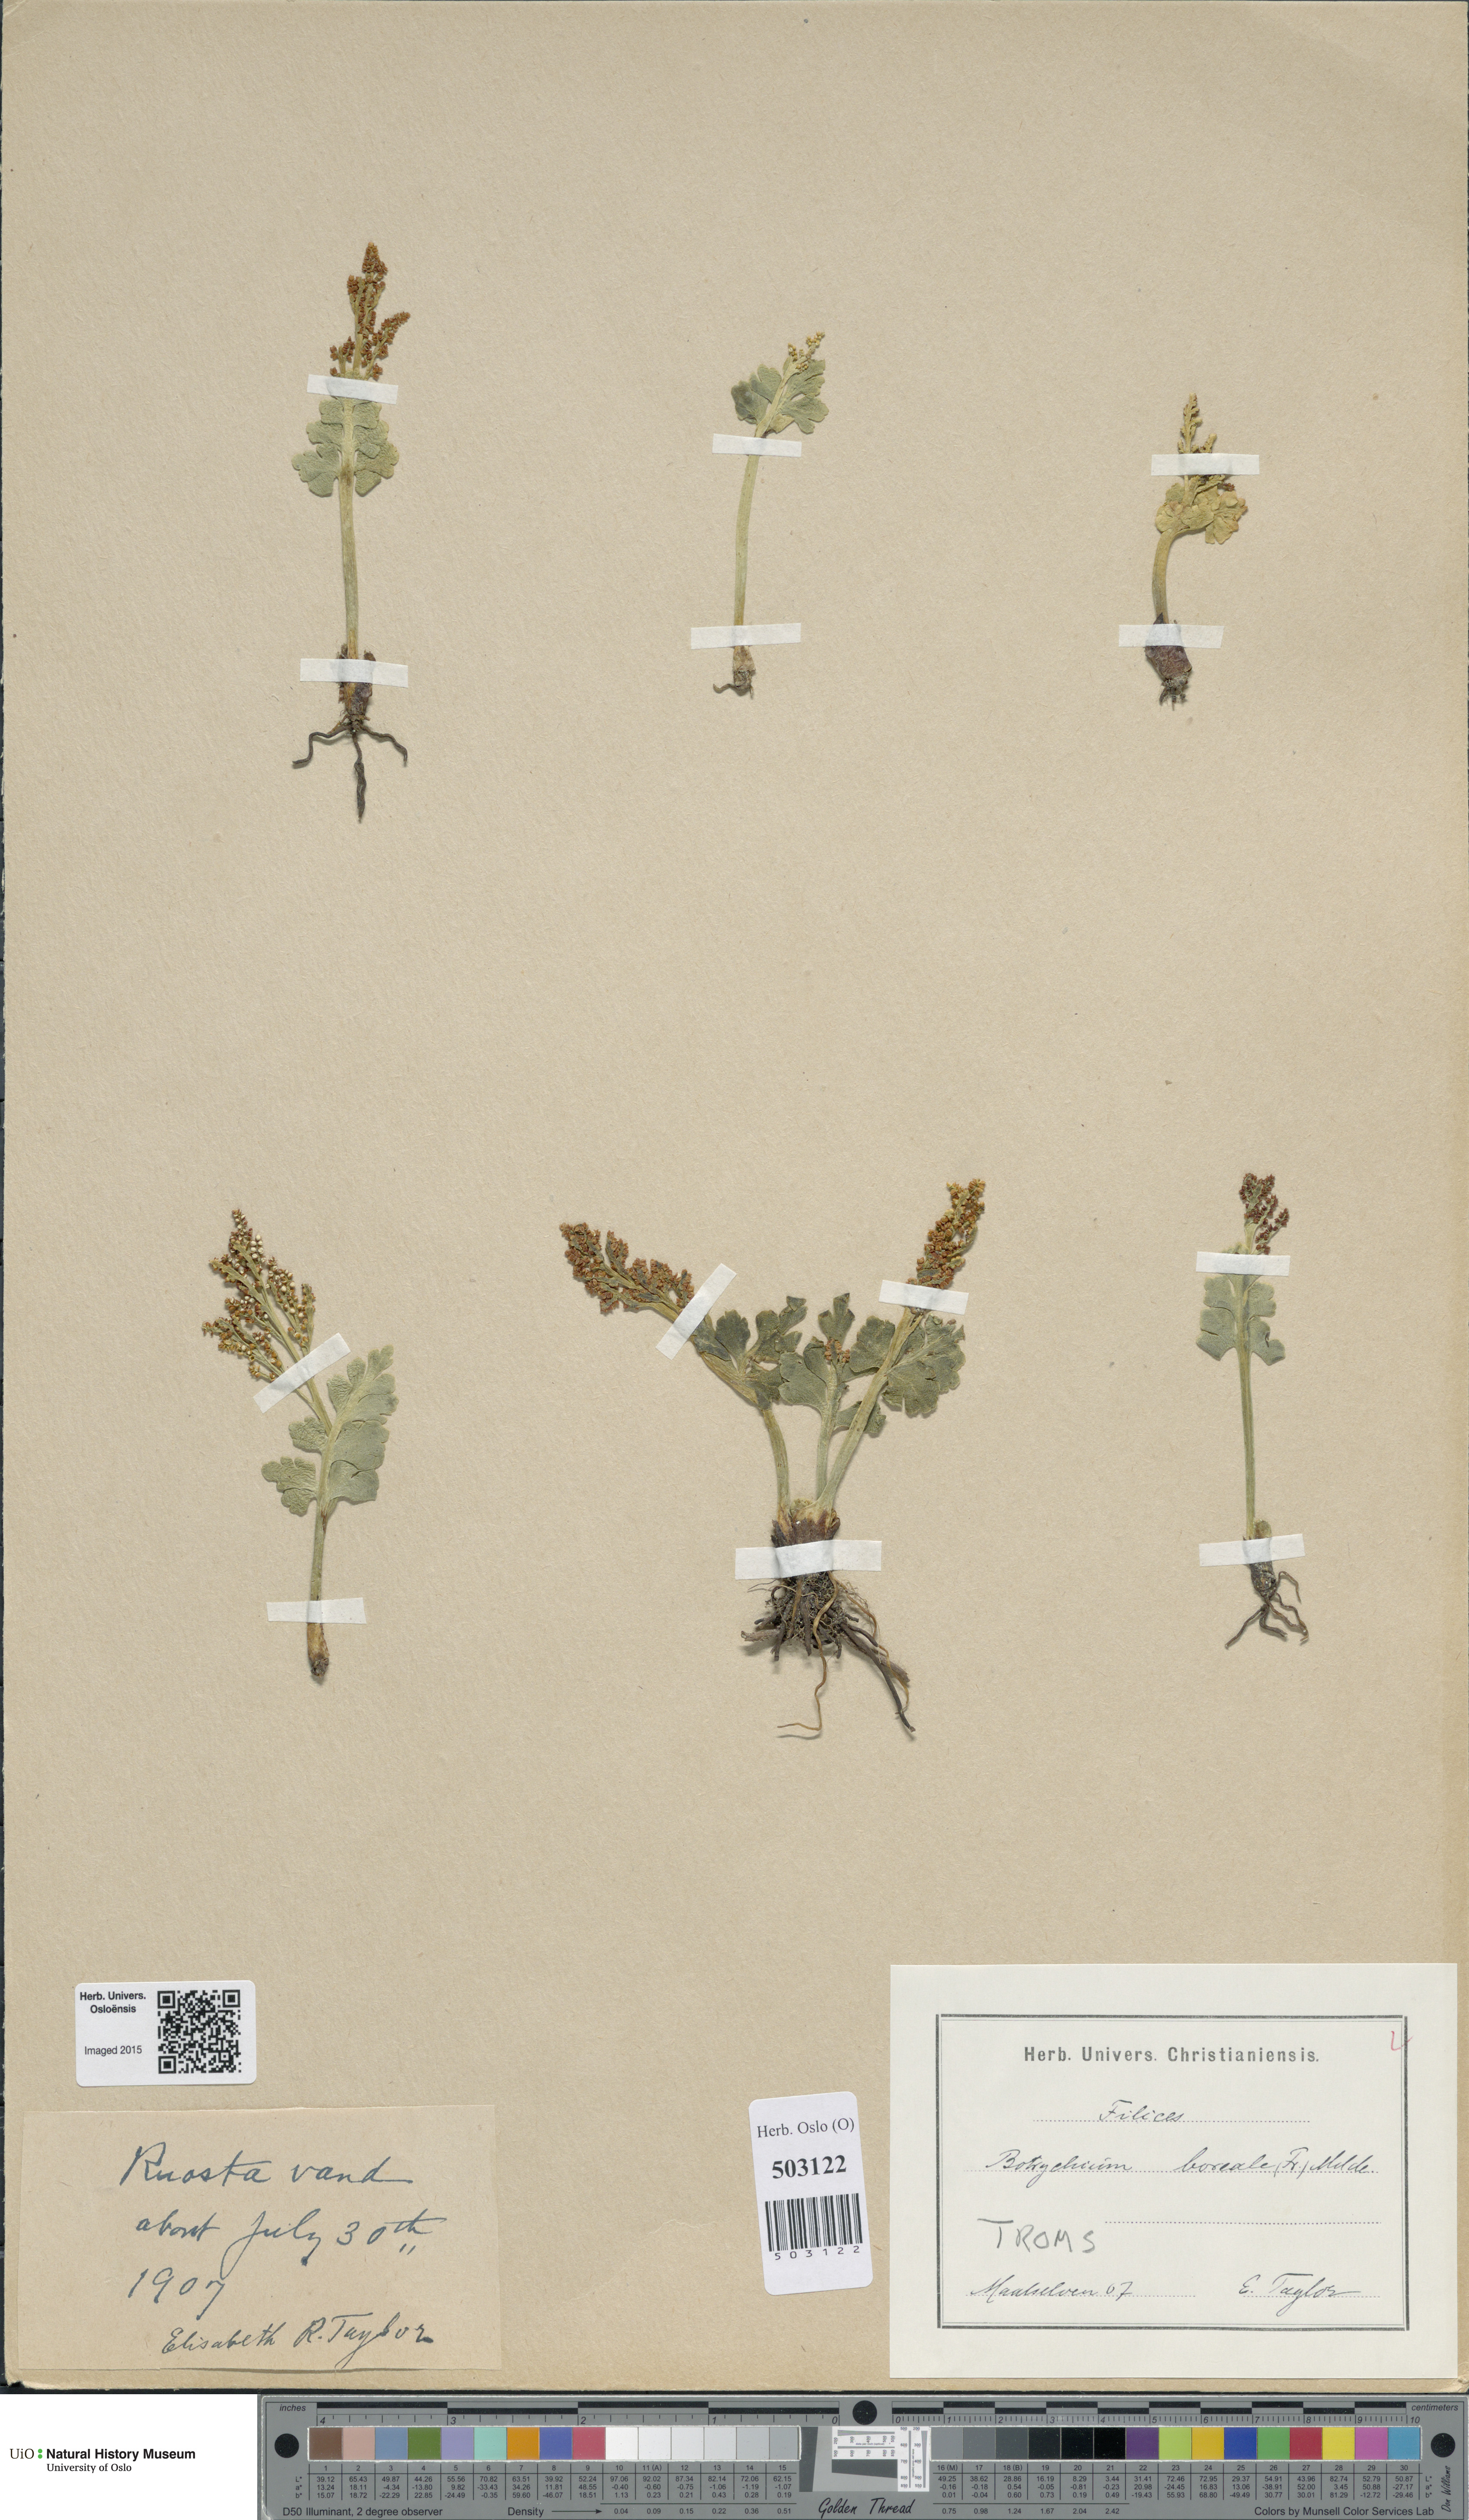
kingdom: Plantae
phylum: Tracheophyta
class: Polypodiopsida
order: Ophioglossales
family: Ophioglossaceae
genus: Botrychium
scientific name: Botrychium boreale
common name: Boreal moonwort
